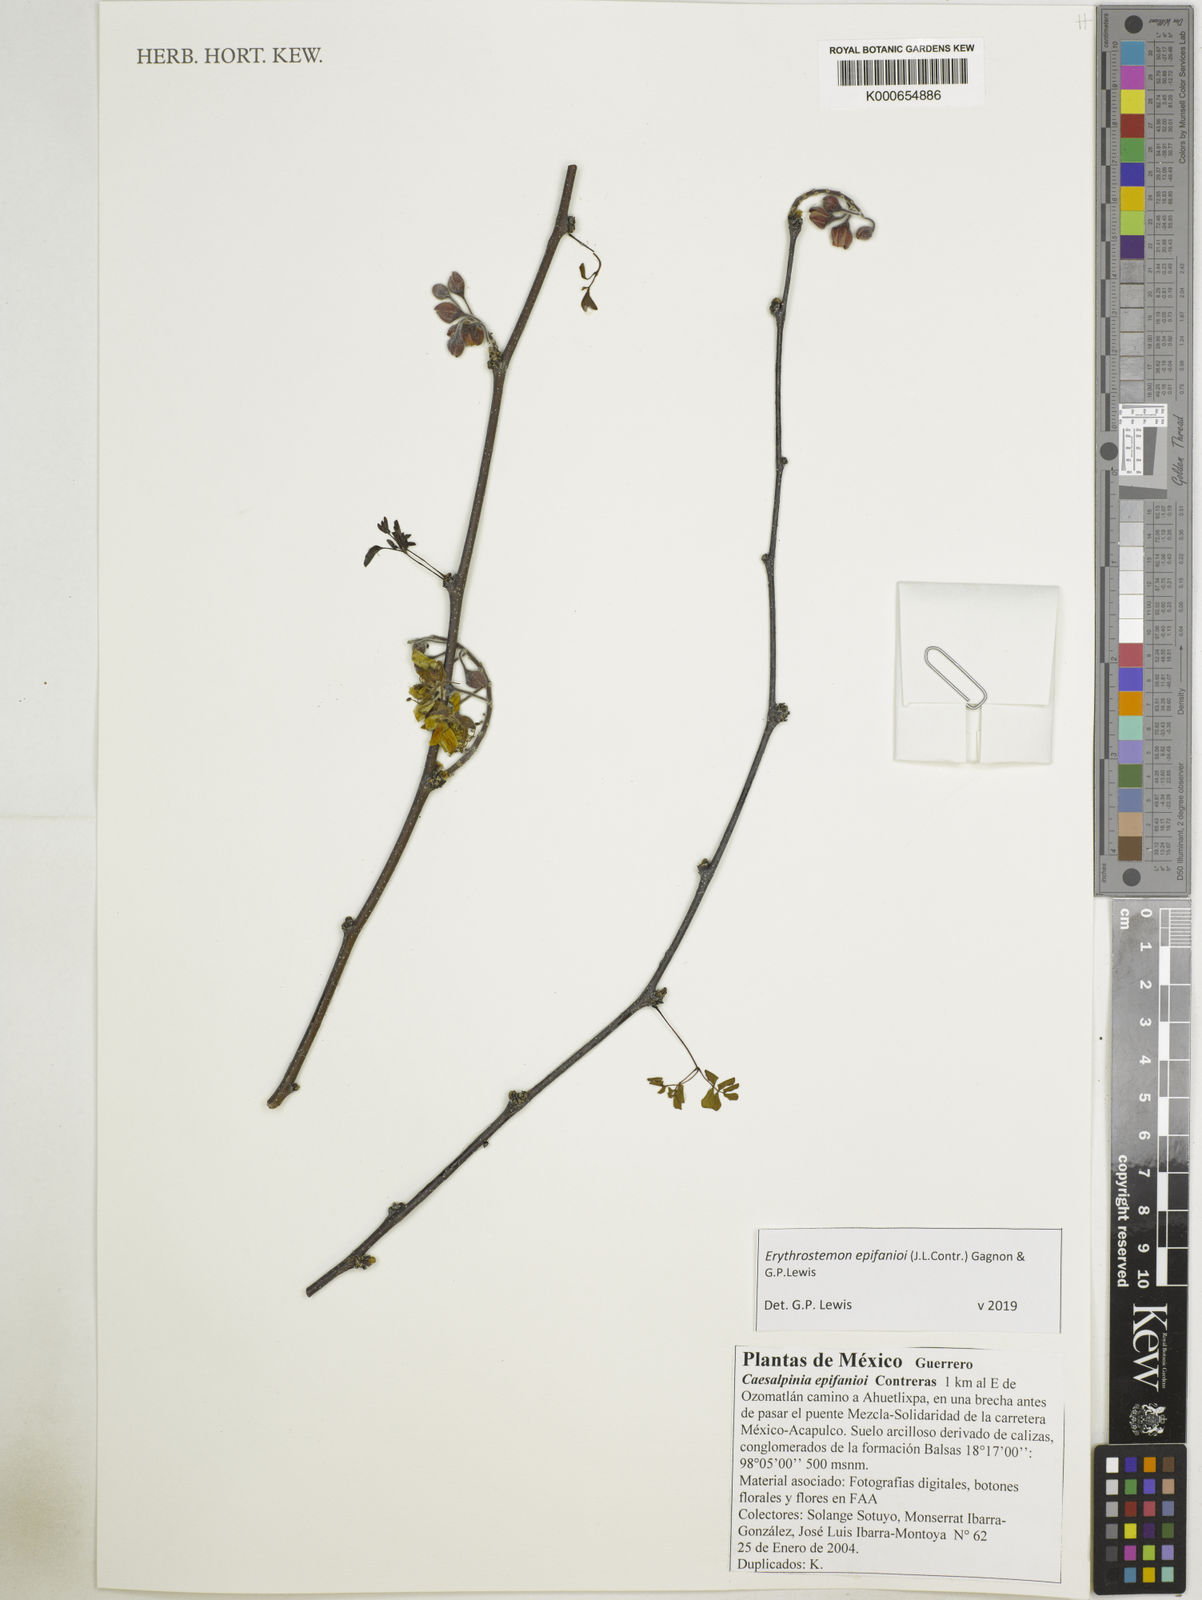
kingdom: Plantae
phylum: Tracheophyta
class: Magnoliopsida
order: Fabales
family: Fabaceae
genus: Erythrostemon
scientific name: Erythrostemon epifanioi
